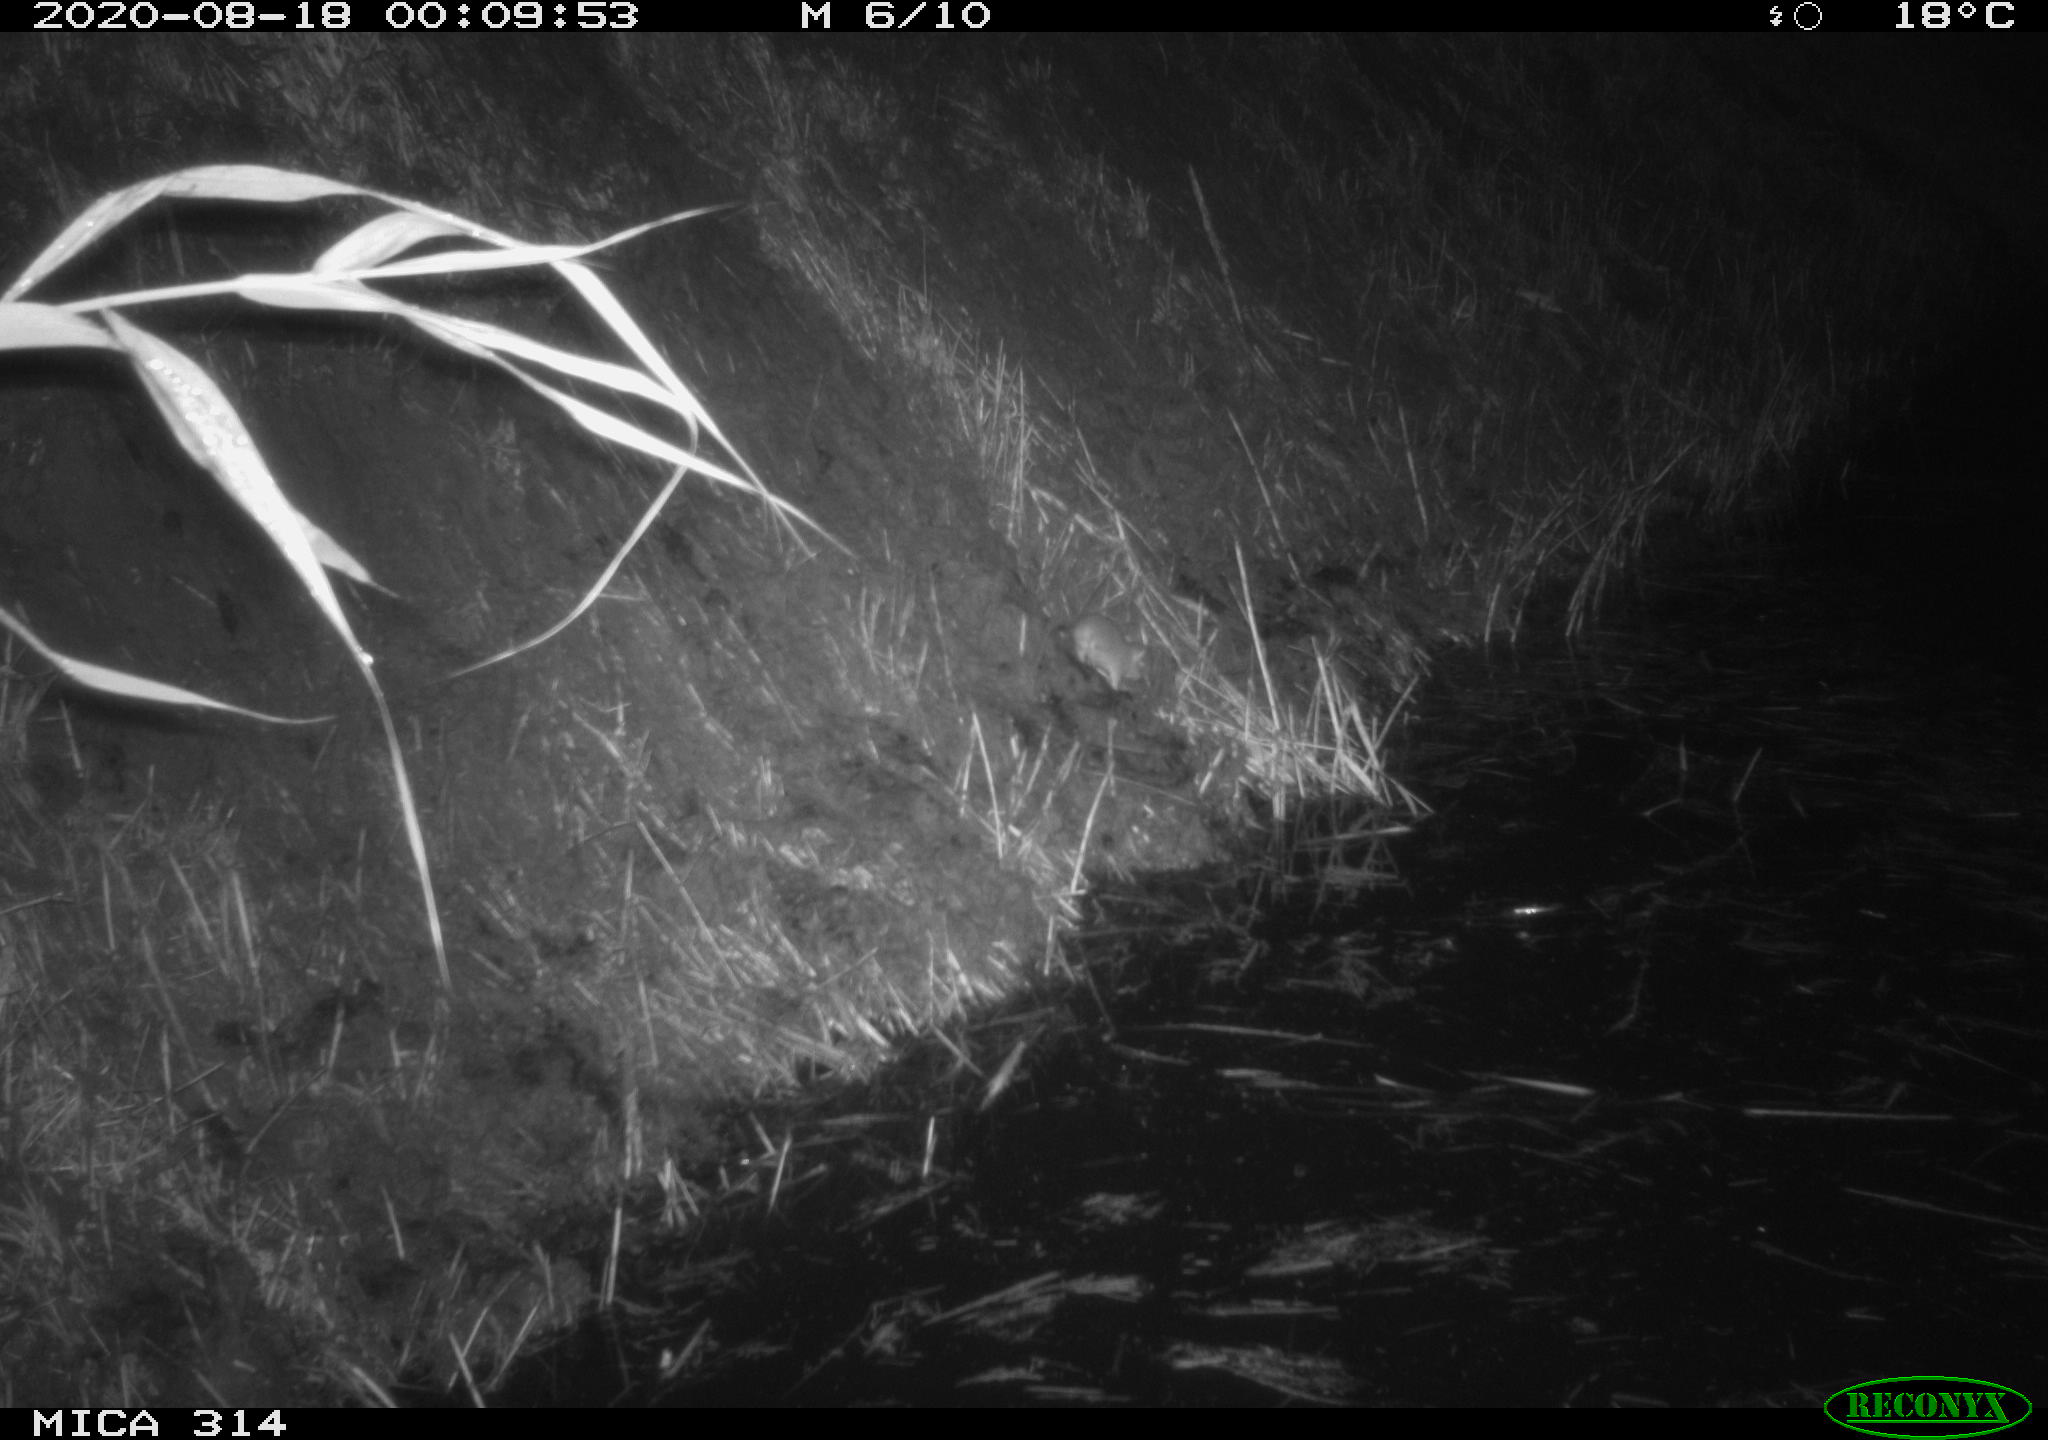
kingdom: Animalia
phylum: Chordata
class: Mammalia
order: Rodentia
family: Muridae
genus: Rattus
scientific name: Rattus norvegicus
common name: Brown rat
